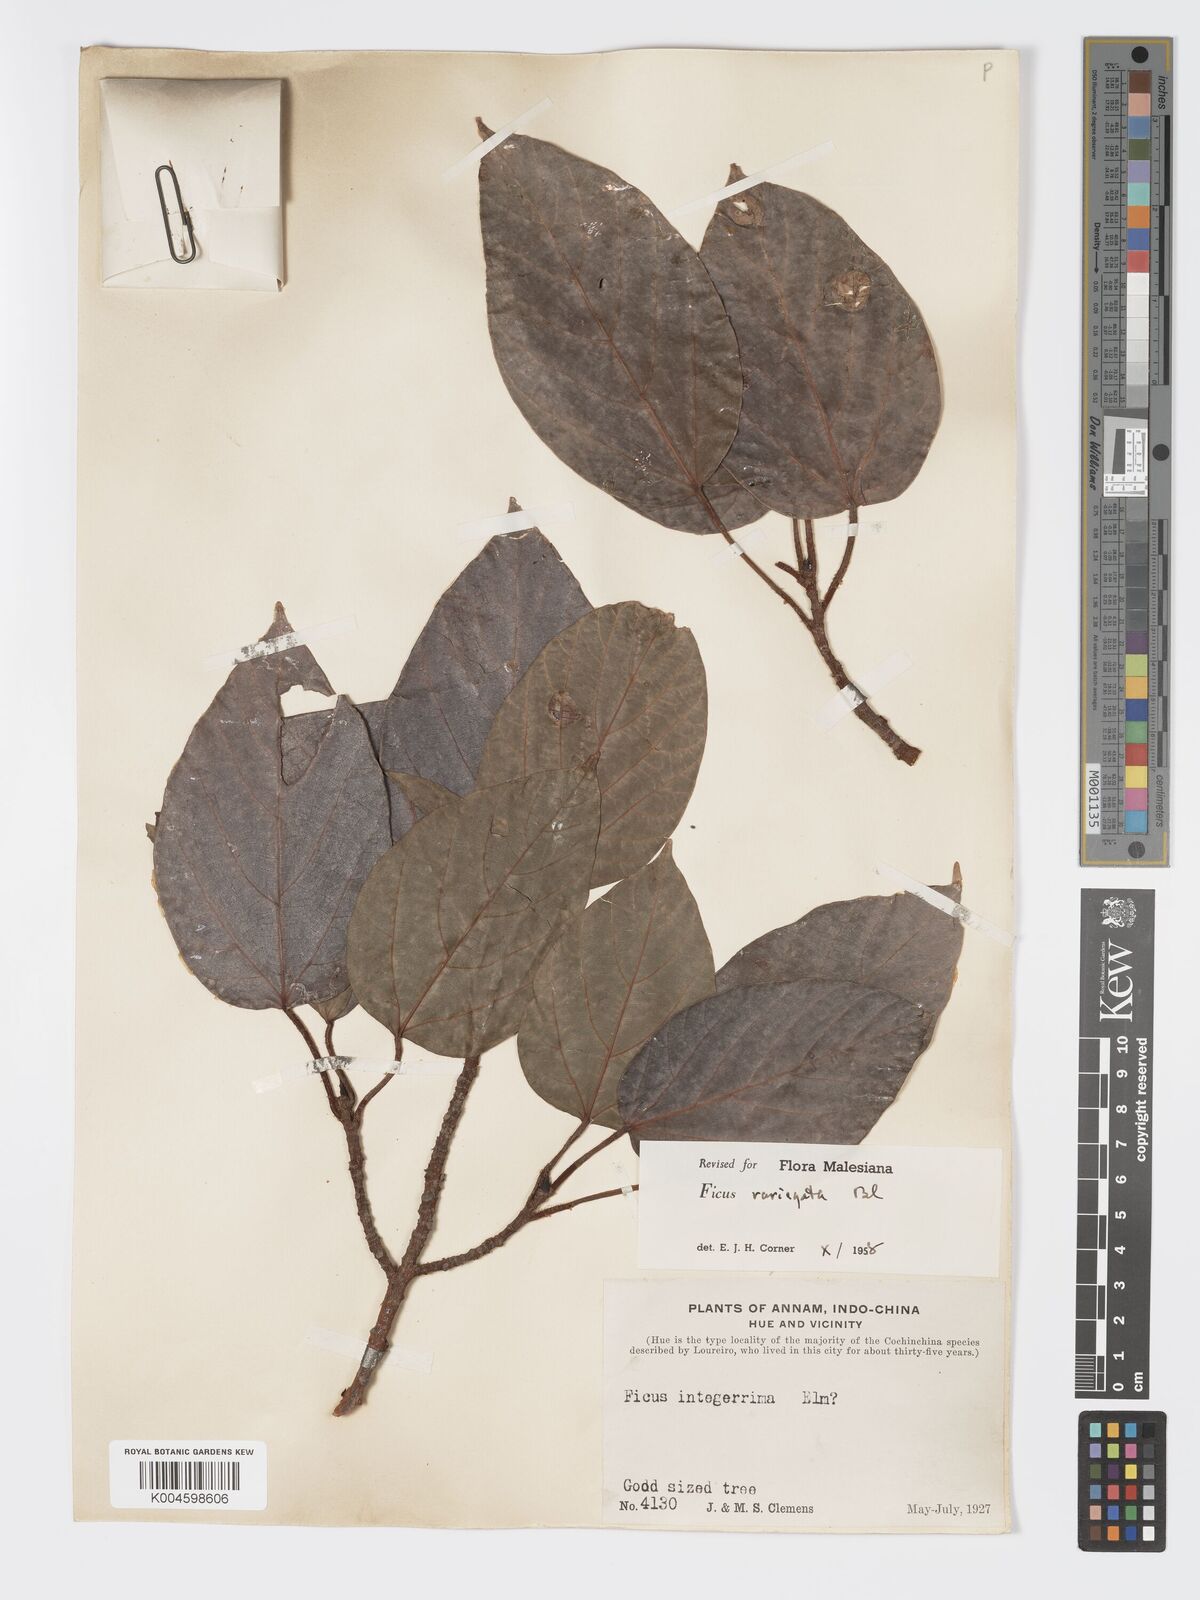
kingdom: Plantae
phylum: Tracheophyta
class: Magnoliopsida
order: Rosales
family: Moraceae
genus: Ficus
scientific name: Ficus variegata
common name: Variegated fig
